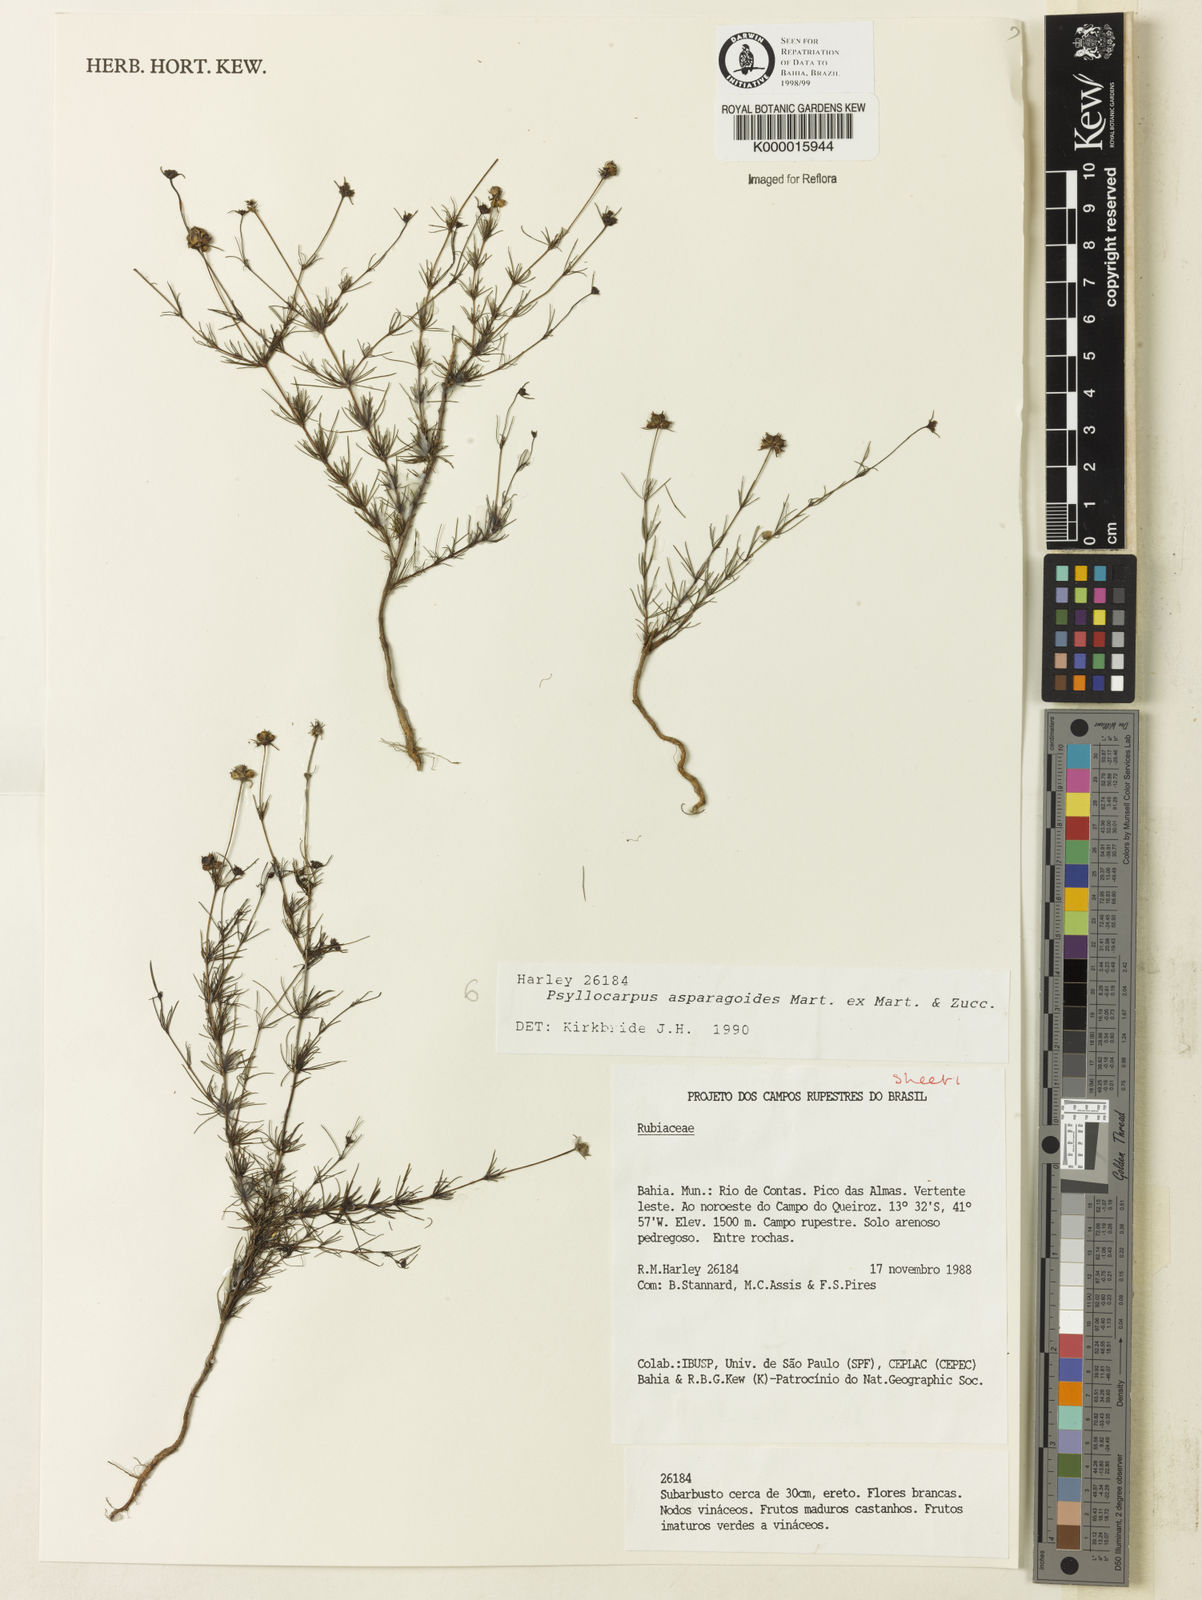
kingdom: Plantae
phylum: Tracheophyta
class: Magnoliopsida
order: Gentianales
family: Rubiaceae
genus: Psyllocarpus
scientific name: Psyllocarpus asparagoides
